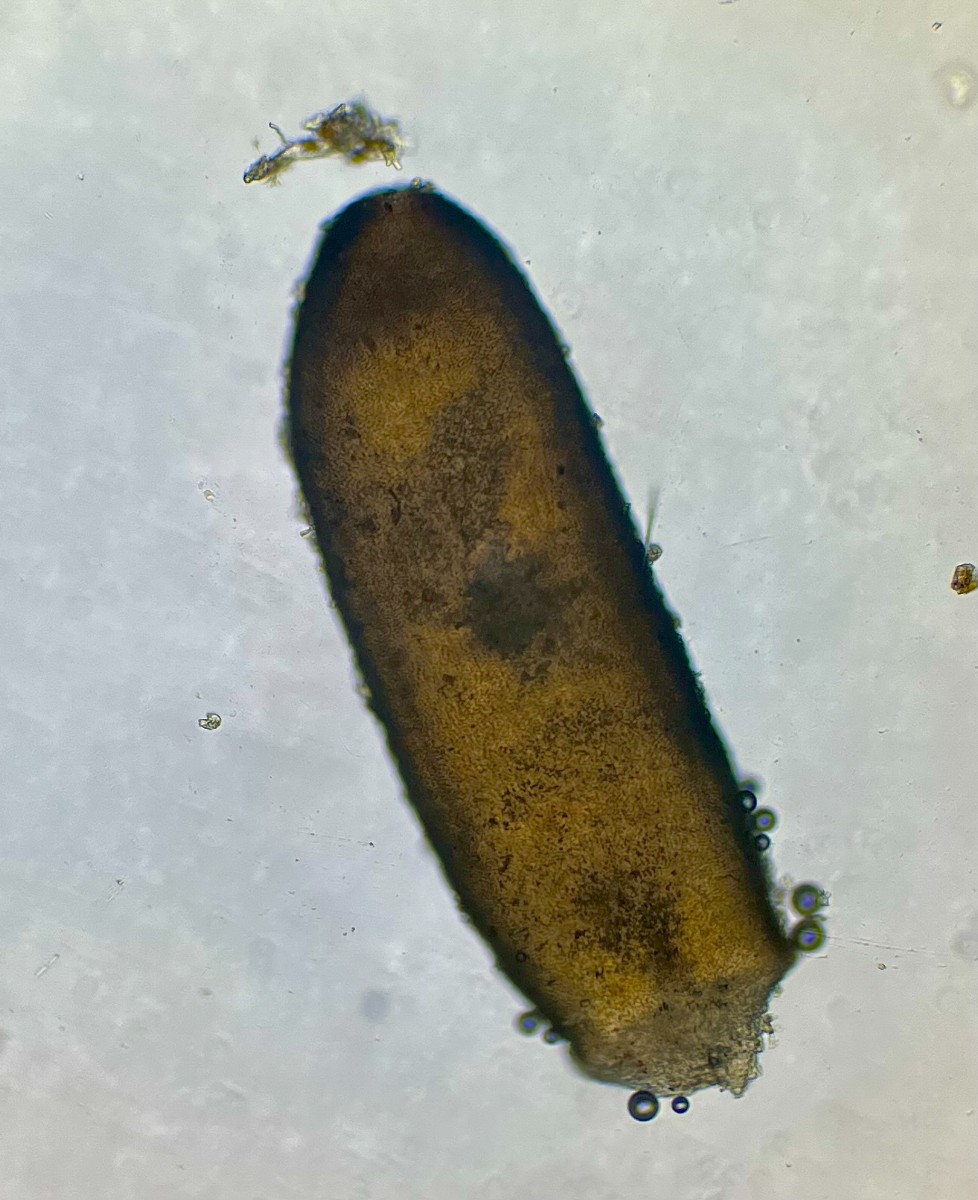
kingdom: Fungi
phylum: Ascomycota
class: Dothideomycetes
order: Acrospermales
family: Acrospermaceae
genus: Acrospermum
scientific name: Acrospermum graminum
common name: græs-stængeltunge
